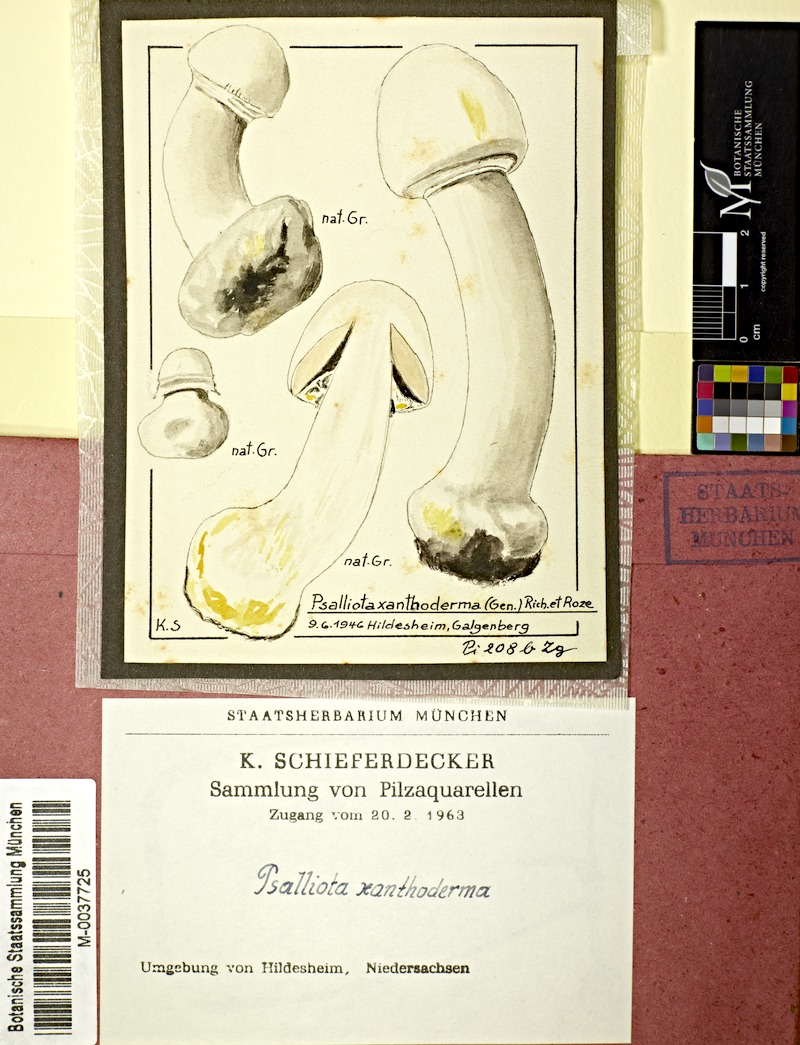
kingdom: Fungi
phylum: Basidiomycota
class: Agaricomycetes
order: Agaricales
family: Agaricaceae
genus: Agaricus
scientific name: Agaricus xanthodermus
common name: Yellow stainer
